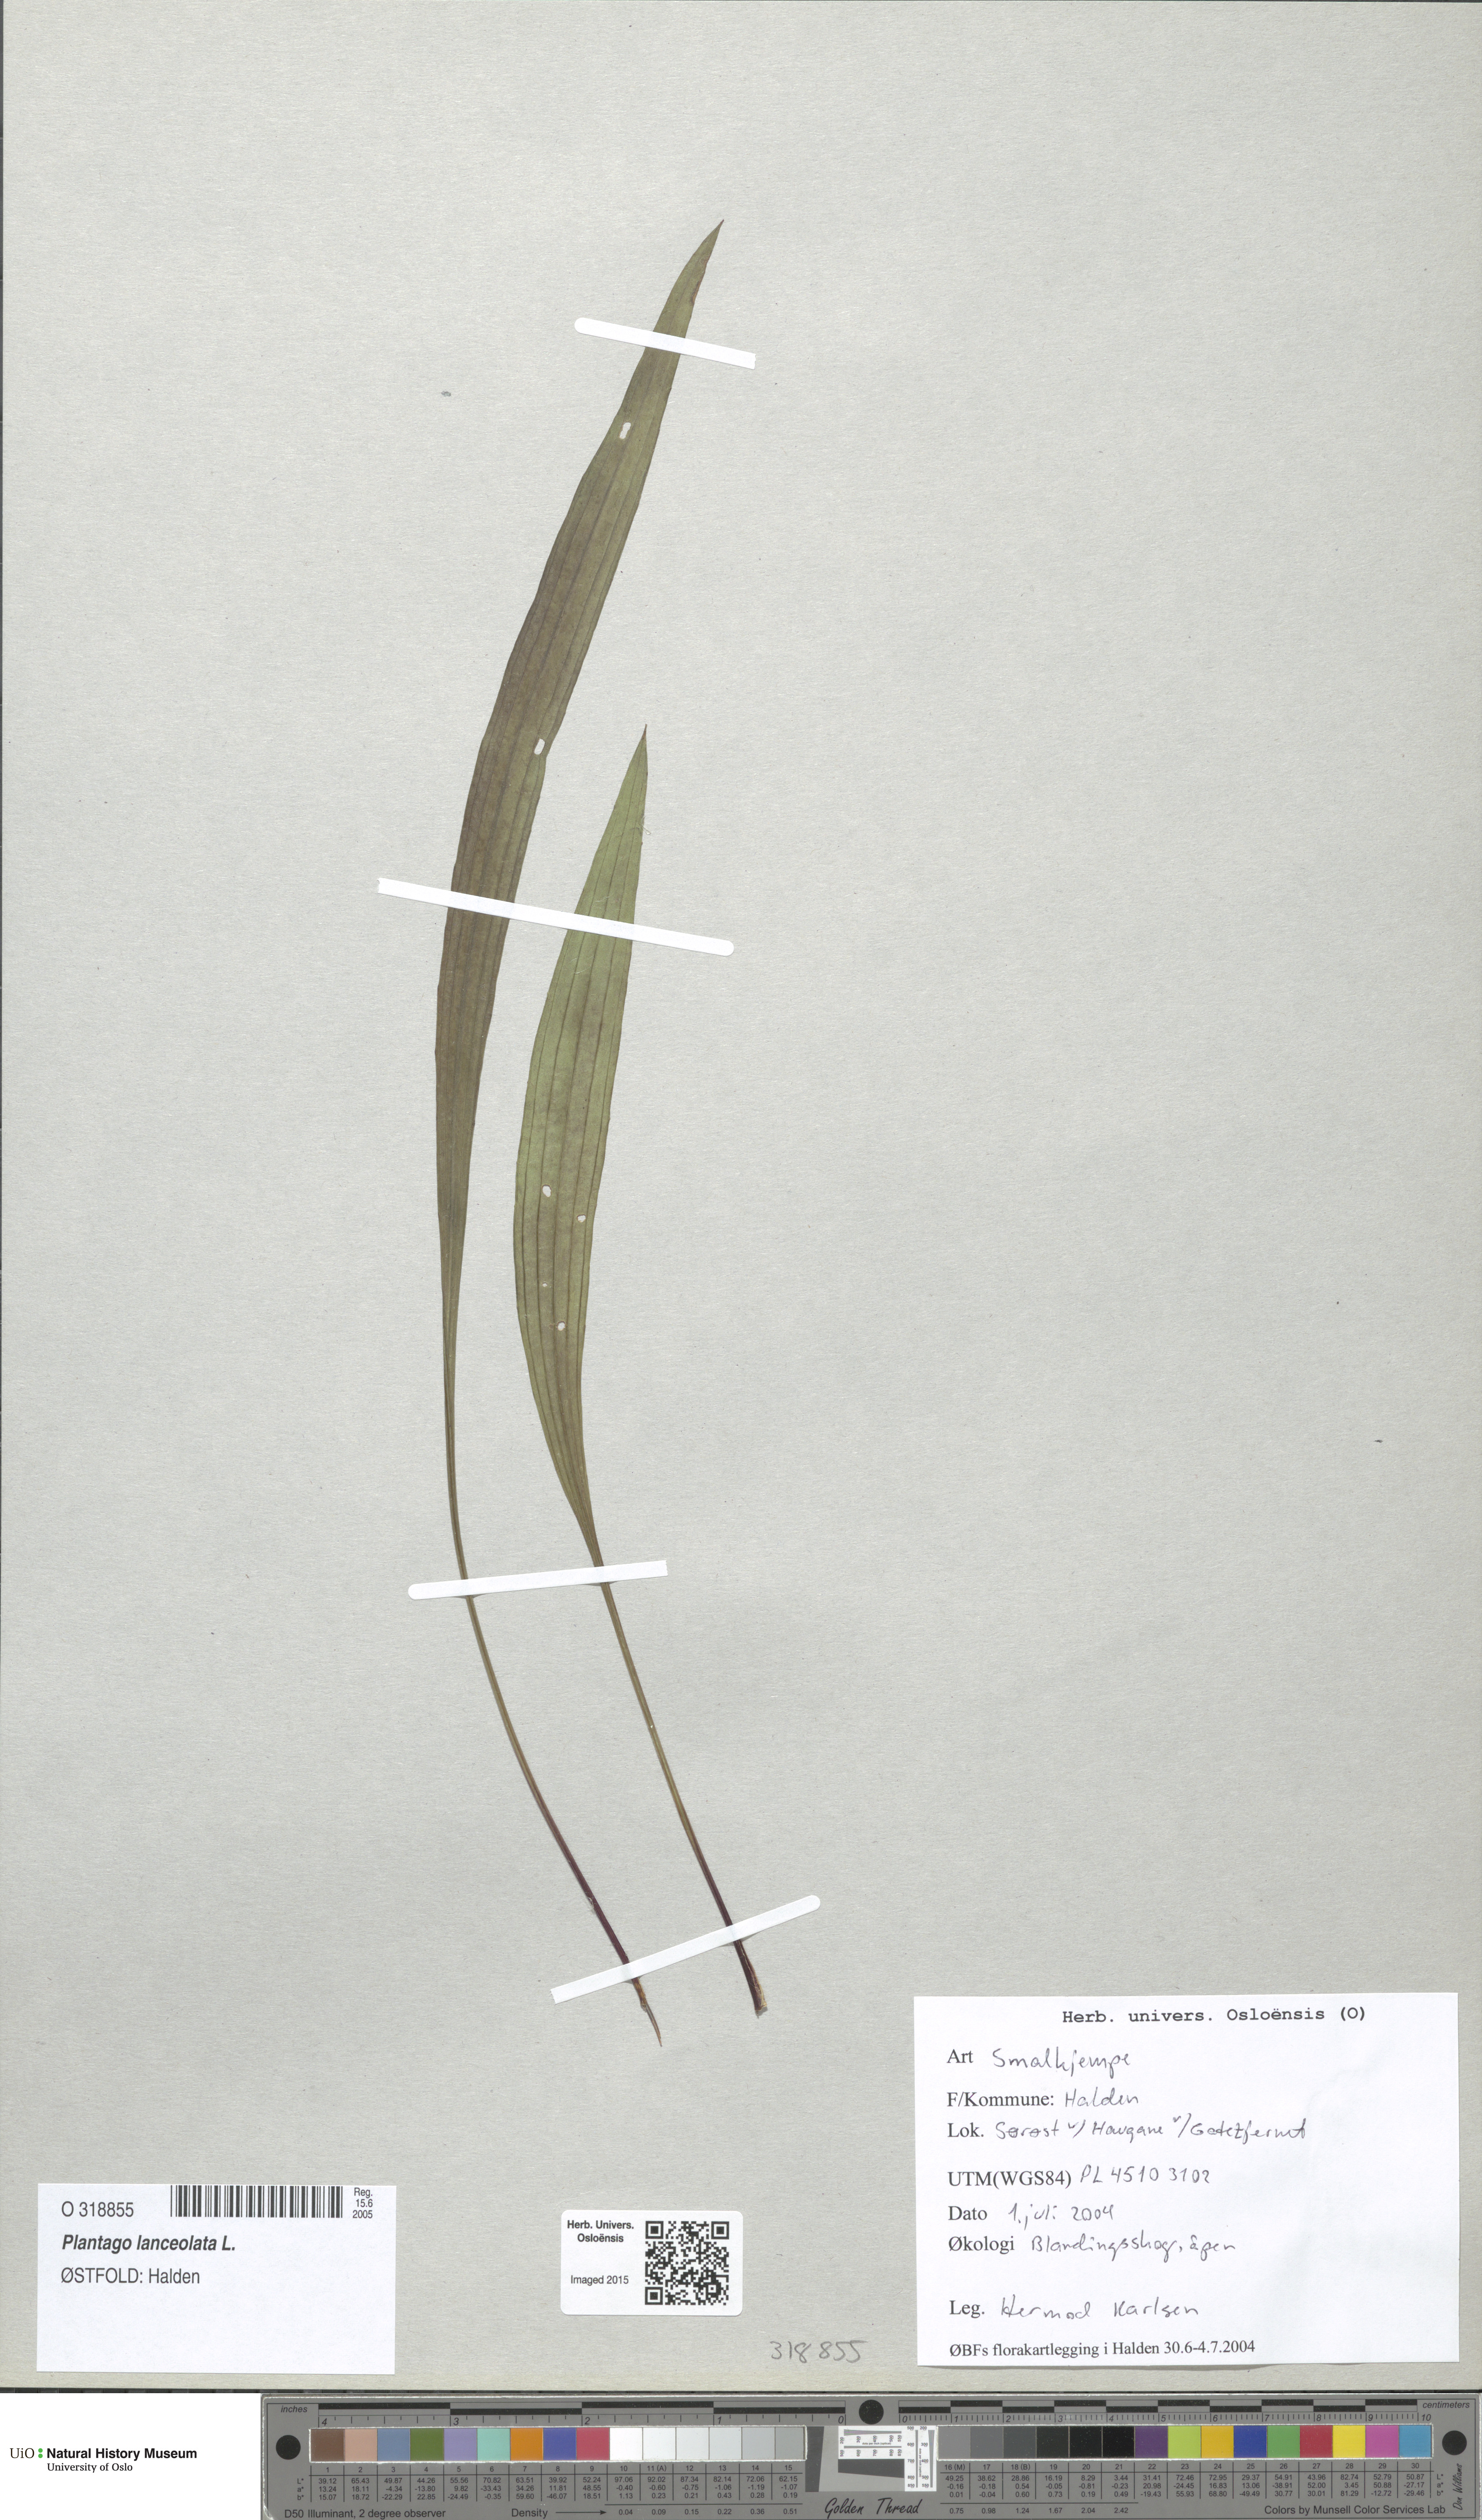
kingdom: Plantae
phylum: Tracheophyta
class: Magnoliopsida
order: Lamiales
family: Plantaginaceae
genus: Plantago
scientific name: Plantago lanceolata
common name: Ribwort plantain
